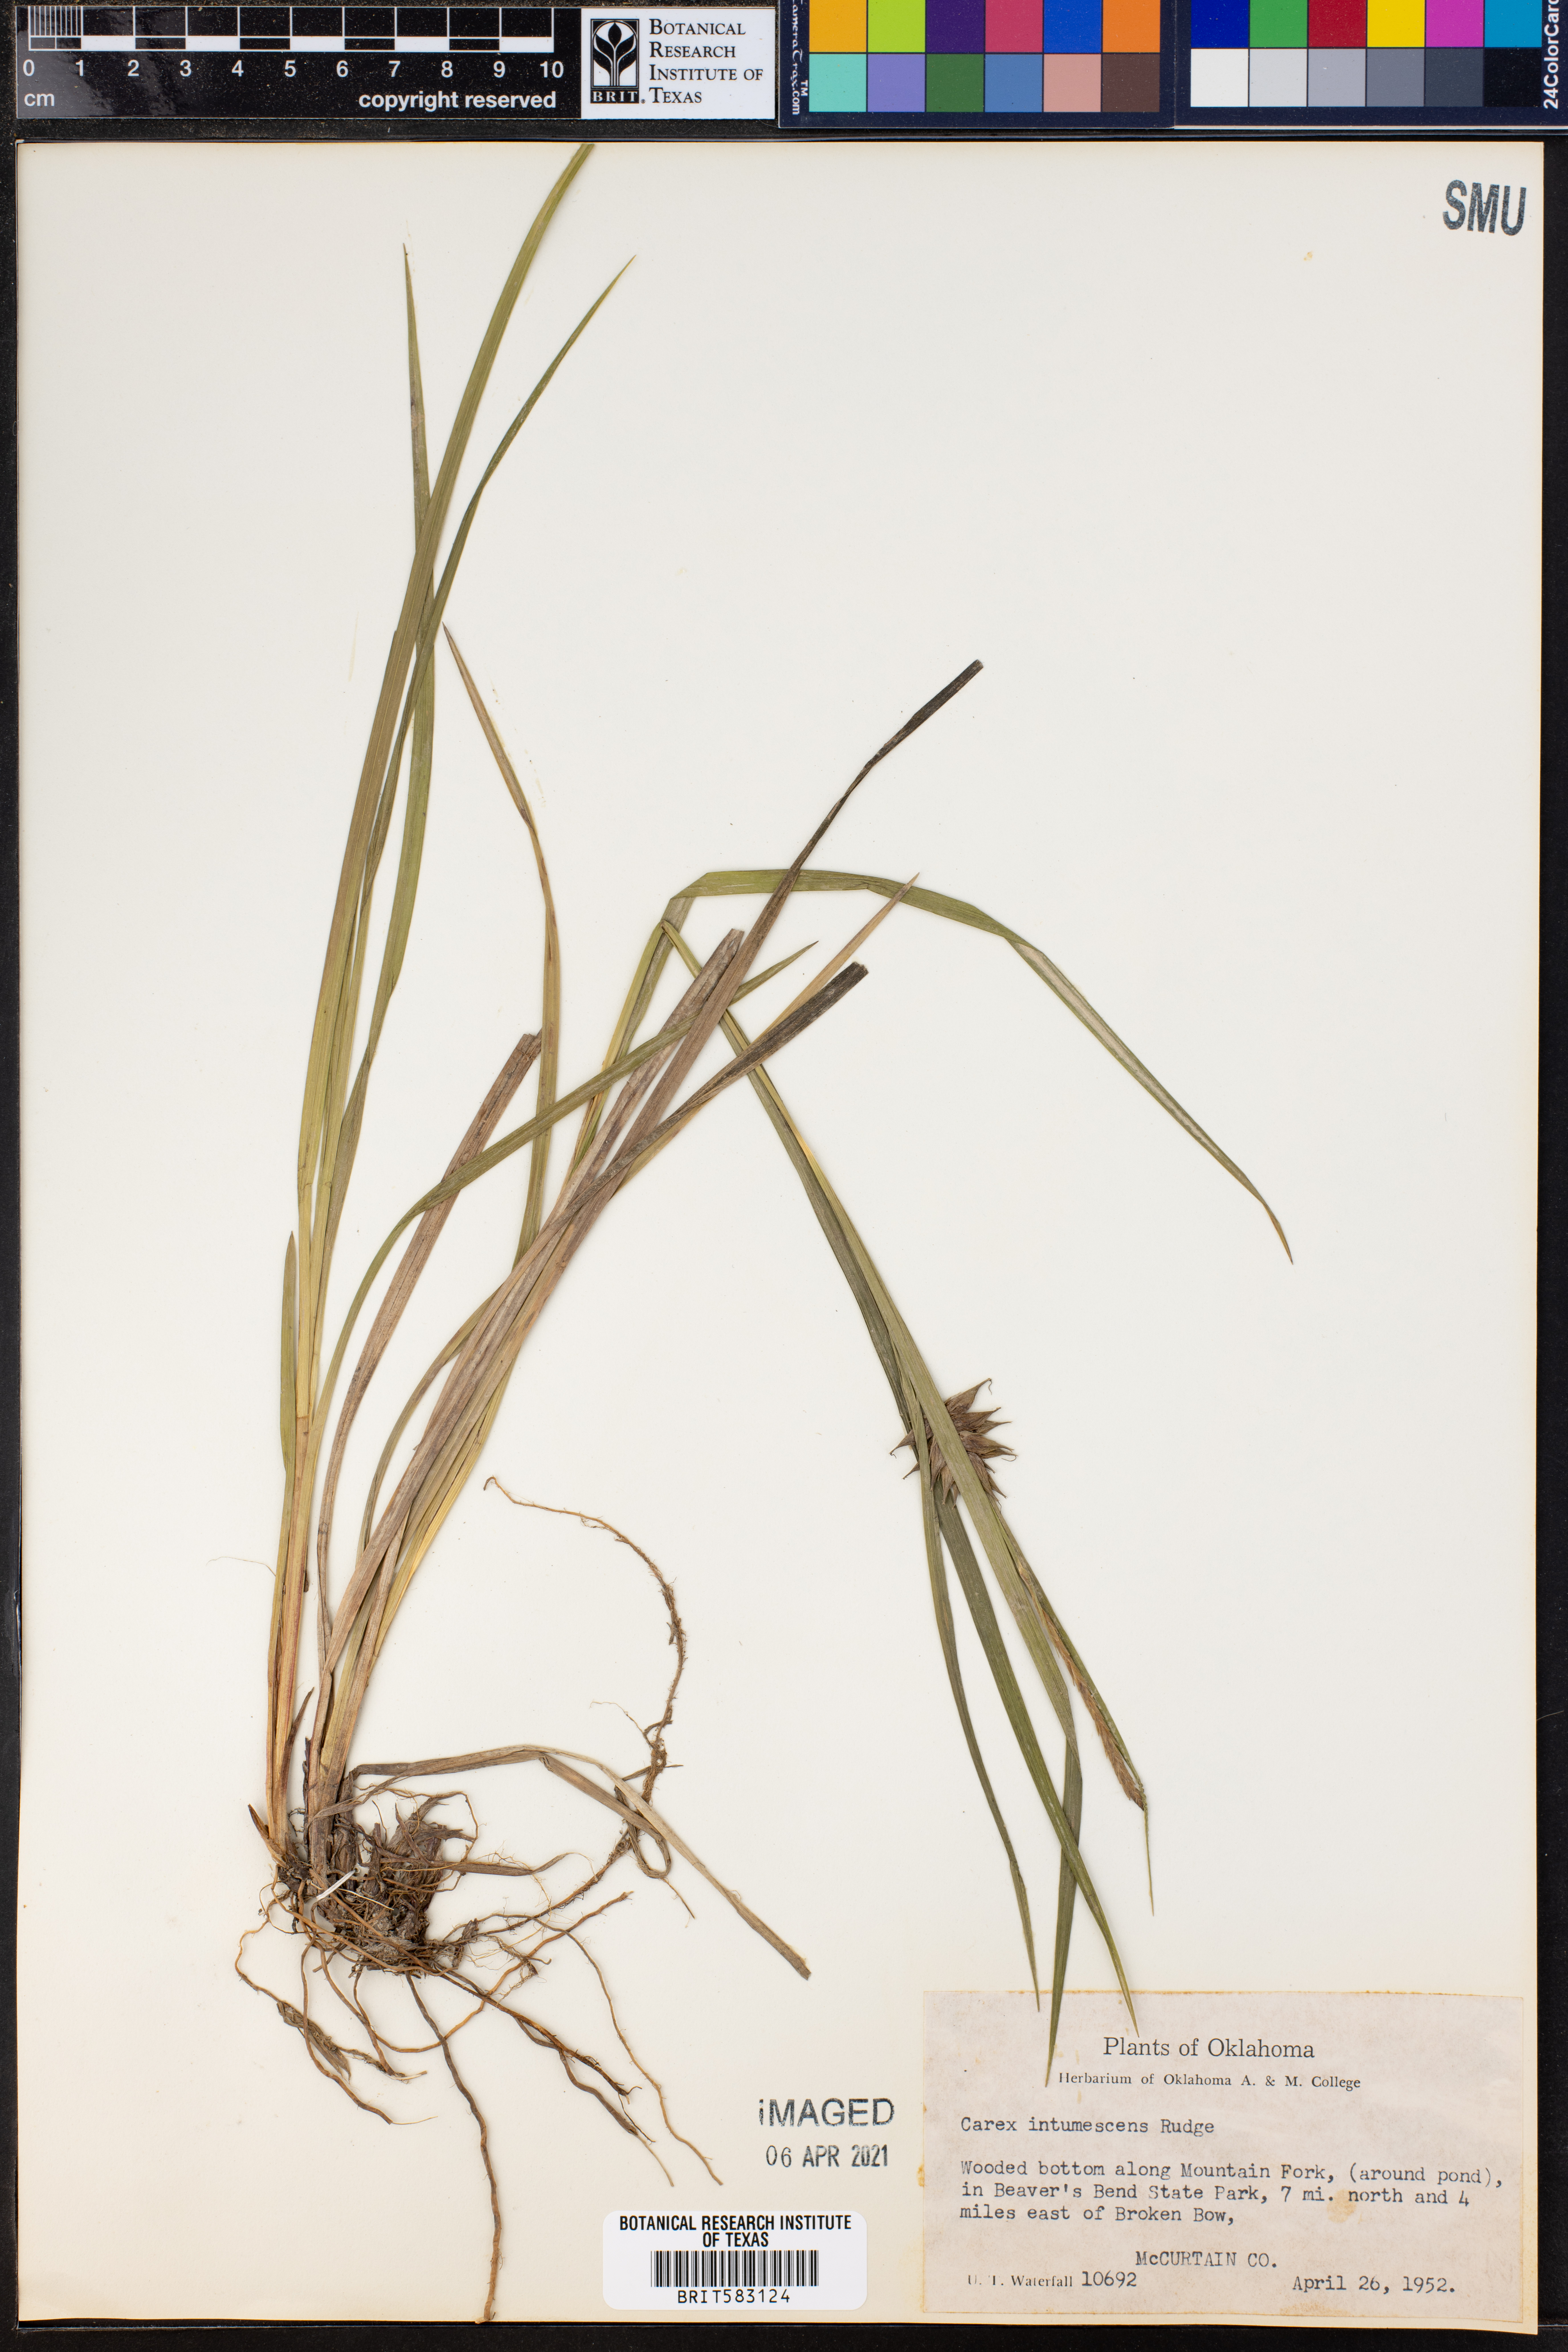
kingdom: Plantae
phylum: Tracheophyta
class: Liliopsida
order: Poales
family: Cyperaceae
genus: Carex
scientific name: Carex intumescens
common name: Greater bladder sedge
